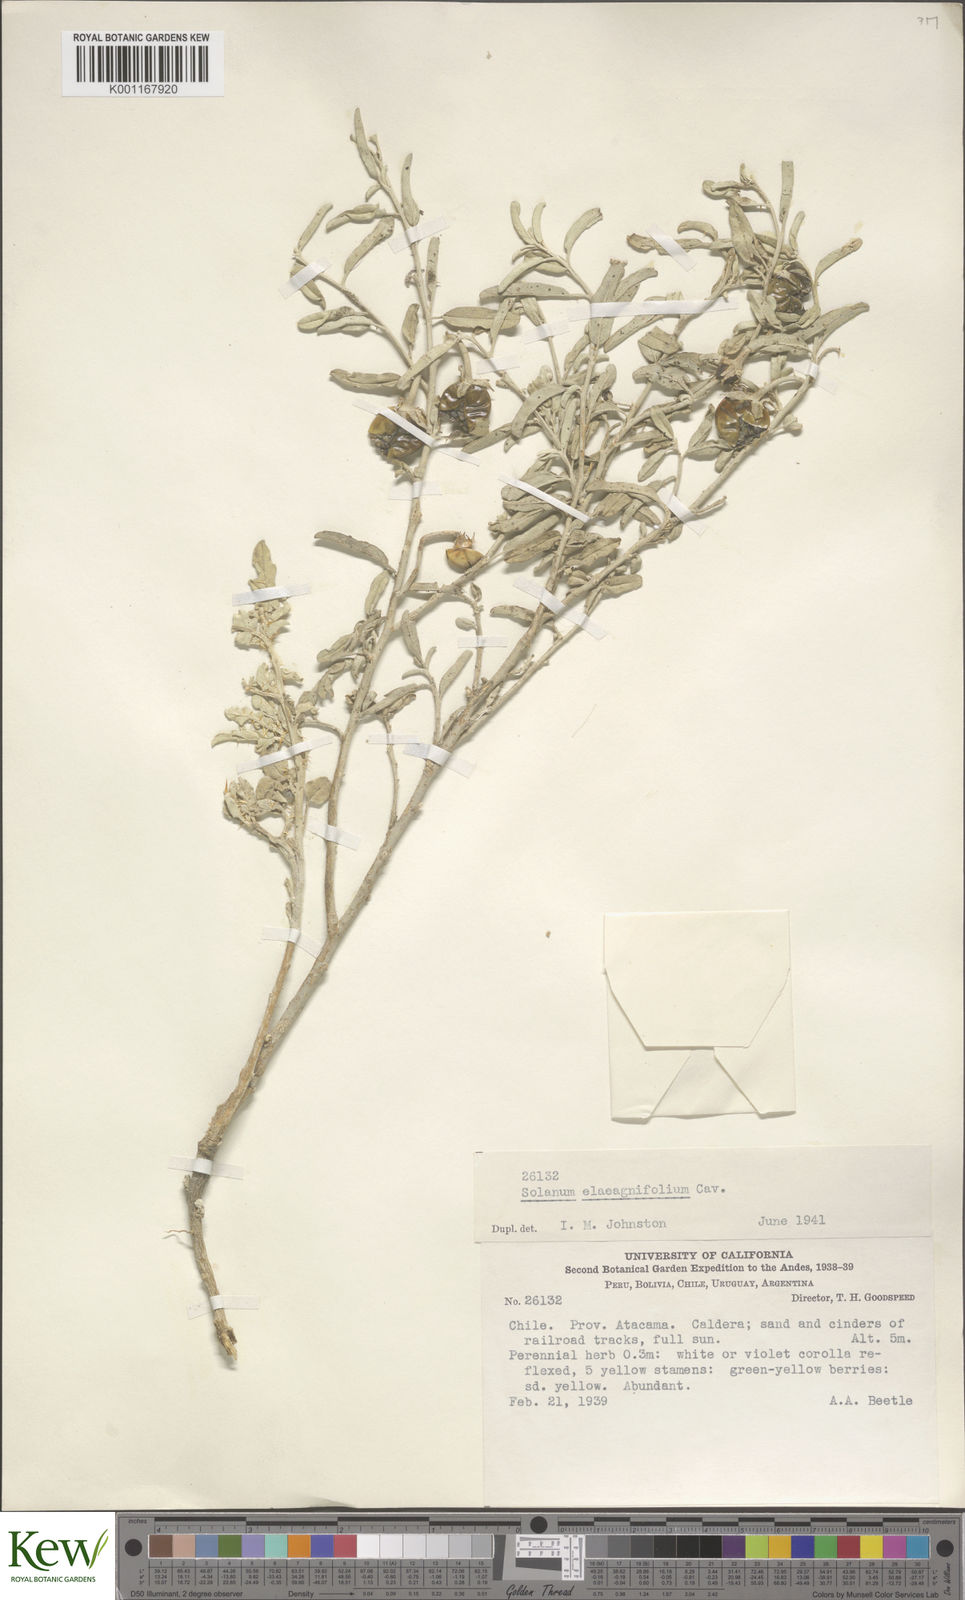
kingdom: Plantae
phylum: Tracheophyta
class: Magnoliopsida
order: Solanales
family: Solanaceae
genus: Solanum
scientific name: Solanum elaeagnifolium
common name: Silverleaf nightshade
